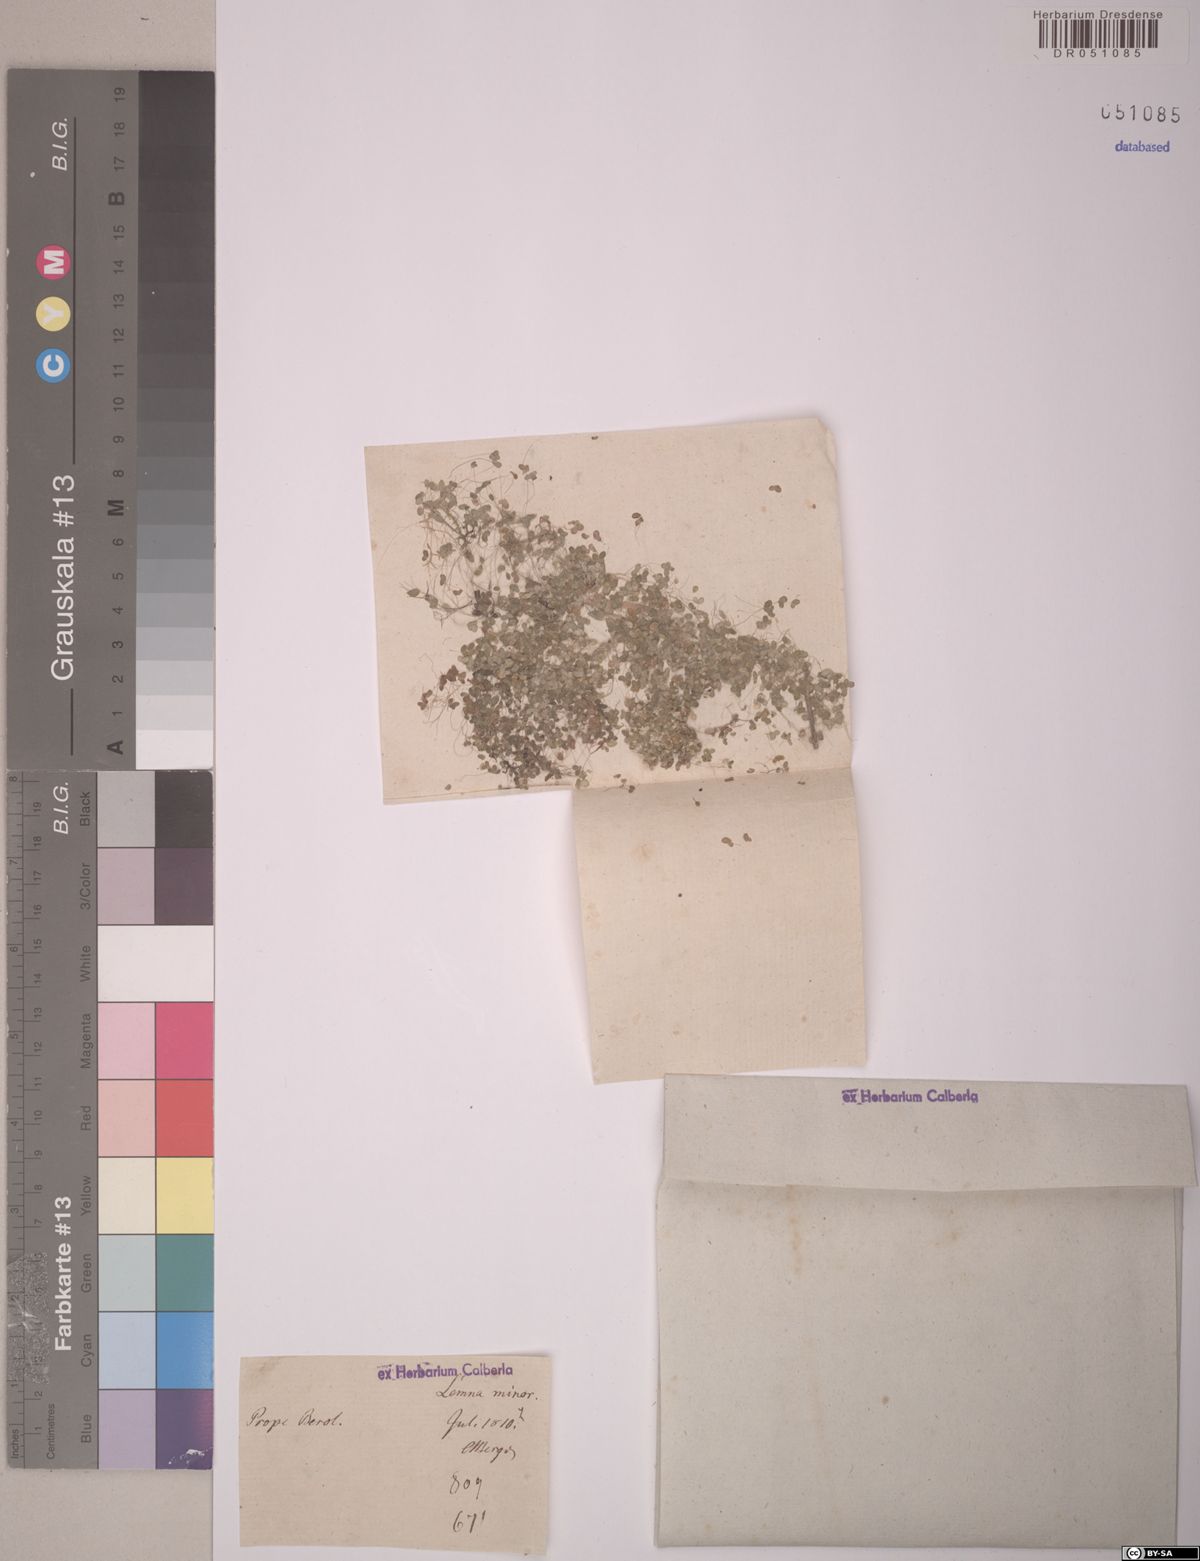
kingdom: Plantae
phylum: Tracheophyta
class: Liliopsida
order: Alismatales
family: Araceae
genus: Lemna
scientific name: Lemna minor
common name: Common duckweed
